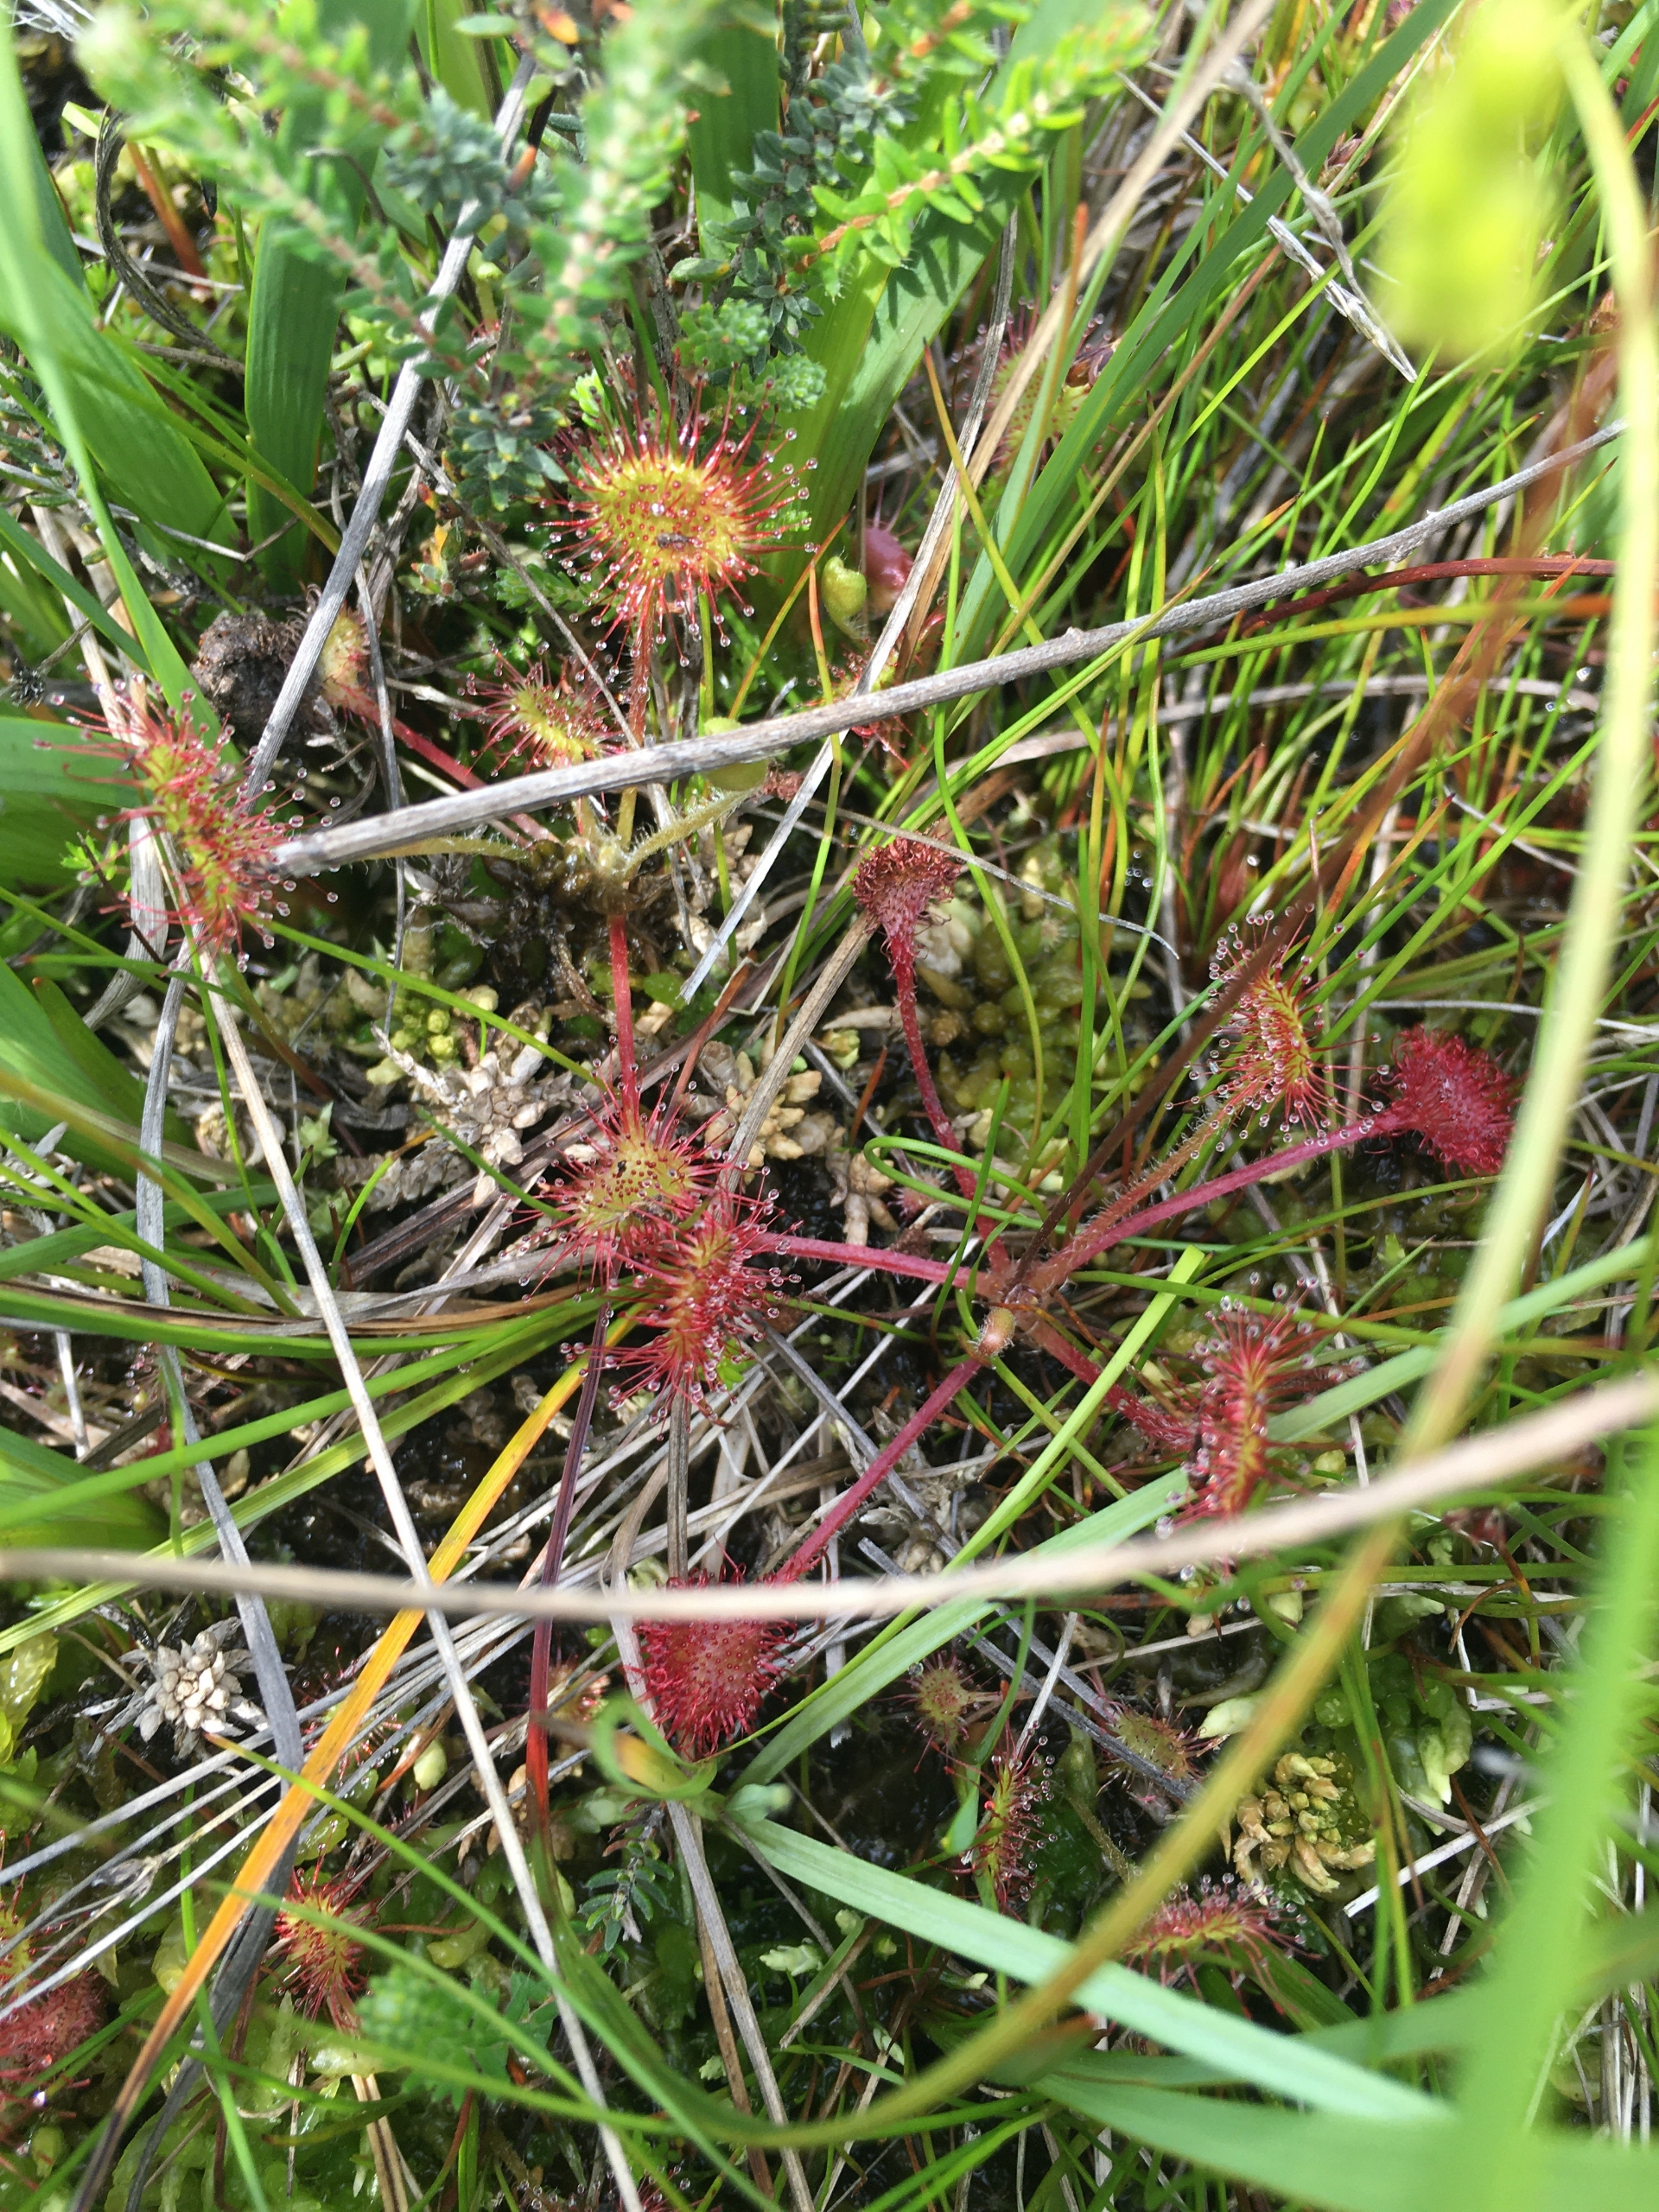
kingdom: Plantae
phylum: Tracheophyta
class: Magnoliopsida
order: Caryophyllales
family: Droseraceae
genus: Drosera
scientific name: Drosera rotundifolia
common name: Rundbladet soldug
